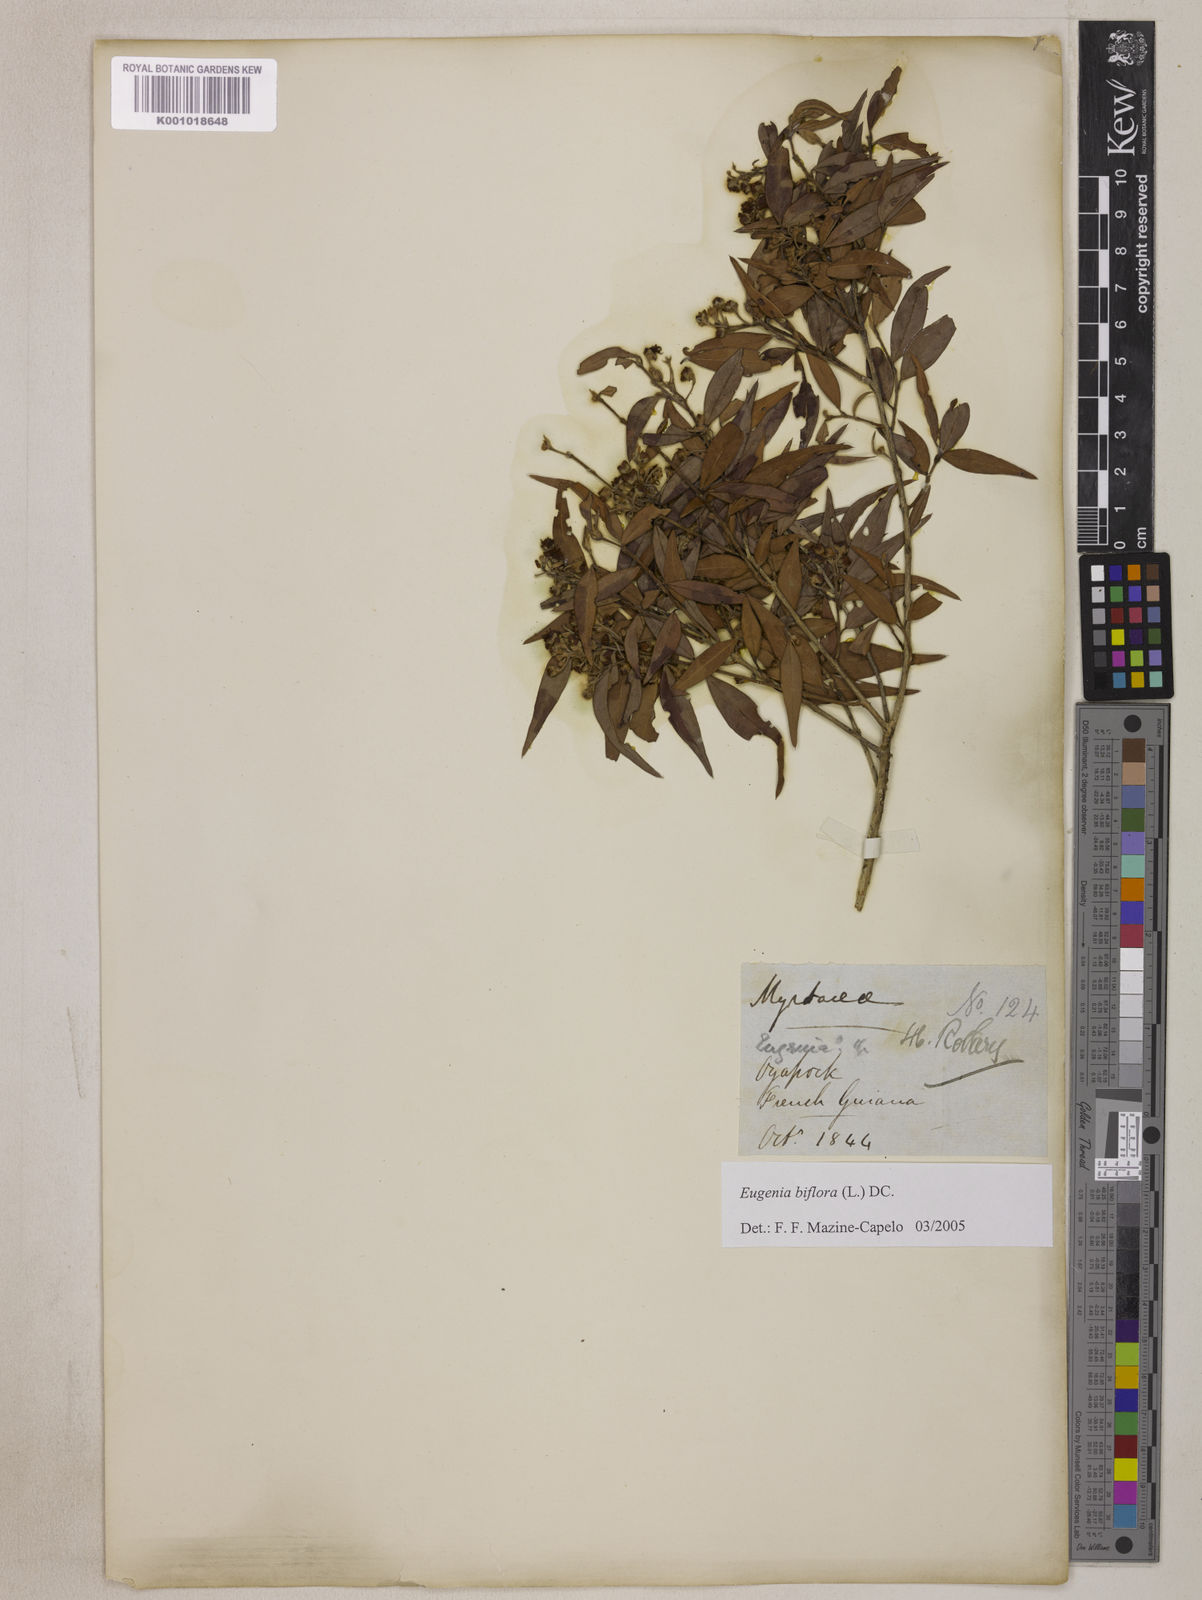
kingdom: Plantae
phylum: Tracheophyta
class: Magnoliopsida
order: Myrtales
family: Myrtaceae
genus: Eugenia
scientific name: Eugenia biflora
